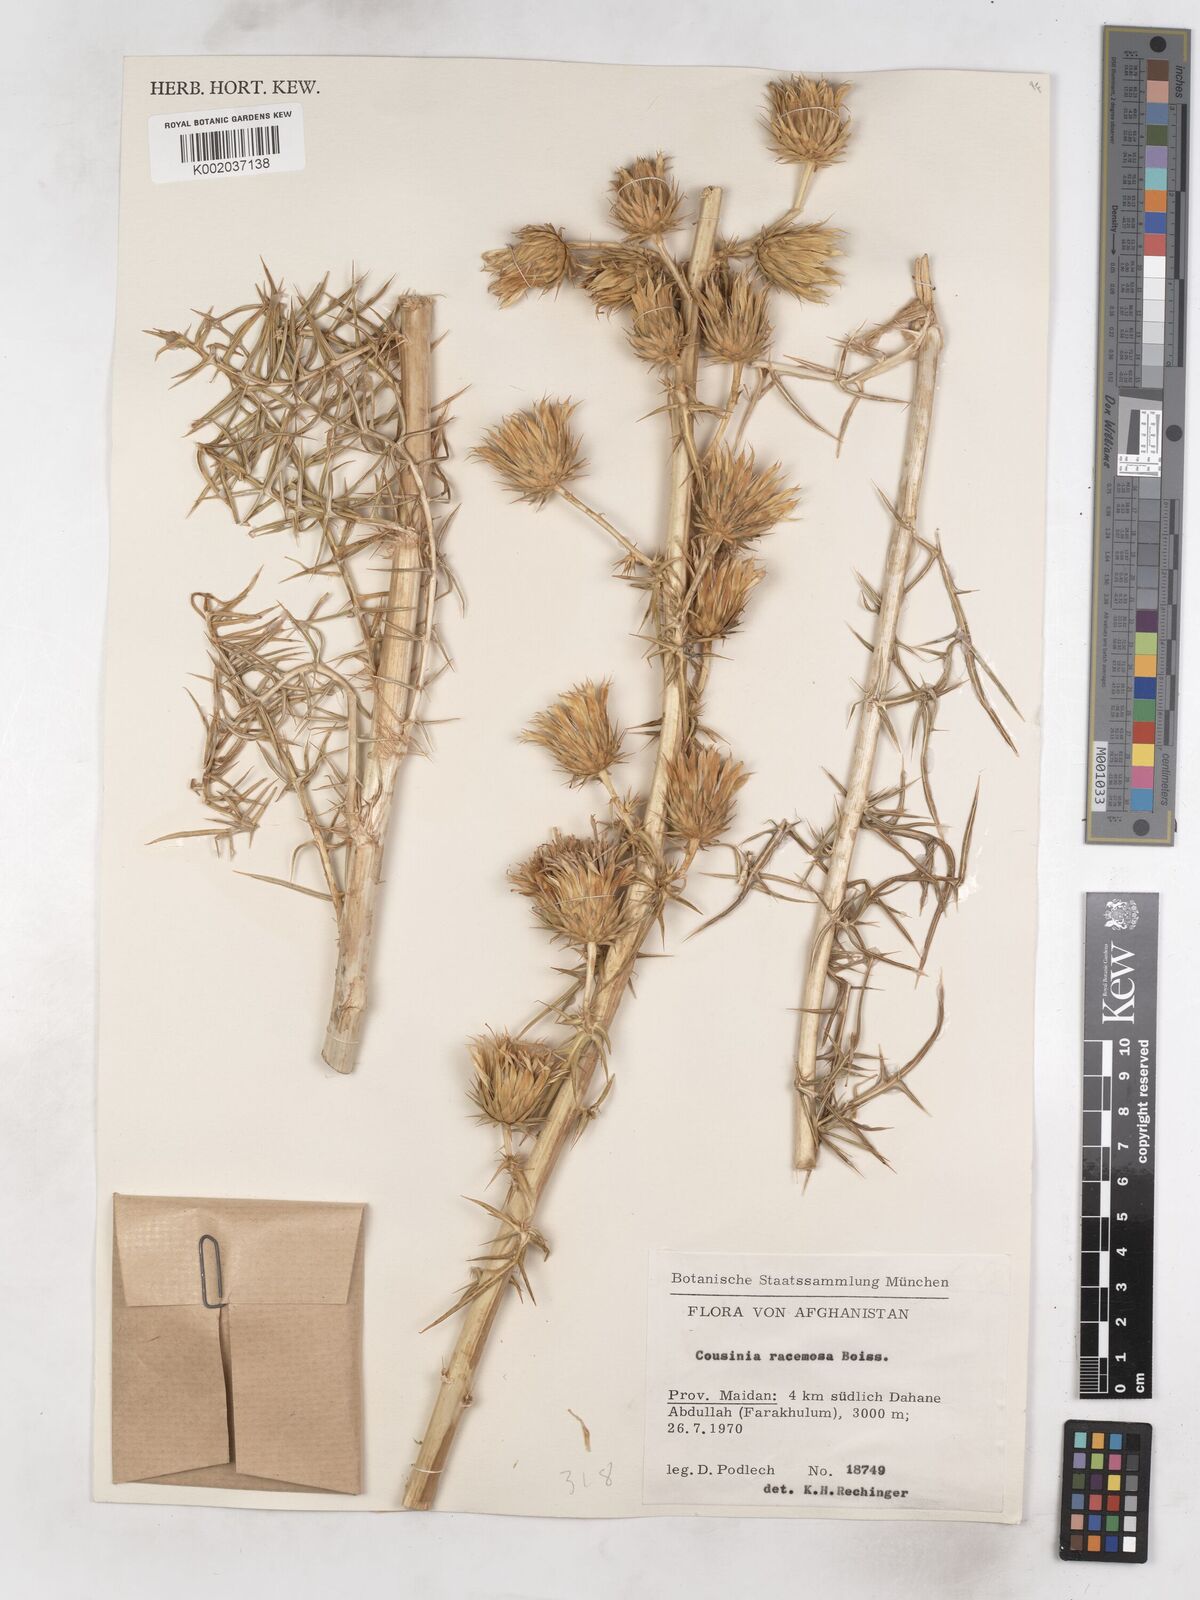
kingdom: Plantae
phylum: Tracheophyta
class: Magnoliopsida
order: Asterales
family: Asteraceae
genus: Cousinia
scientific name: Cousinia racemosa
